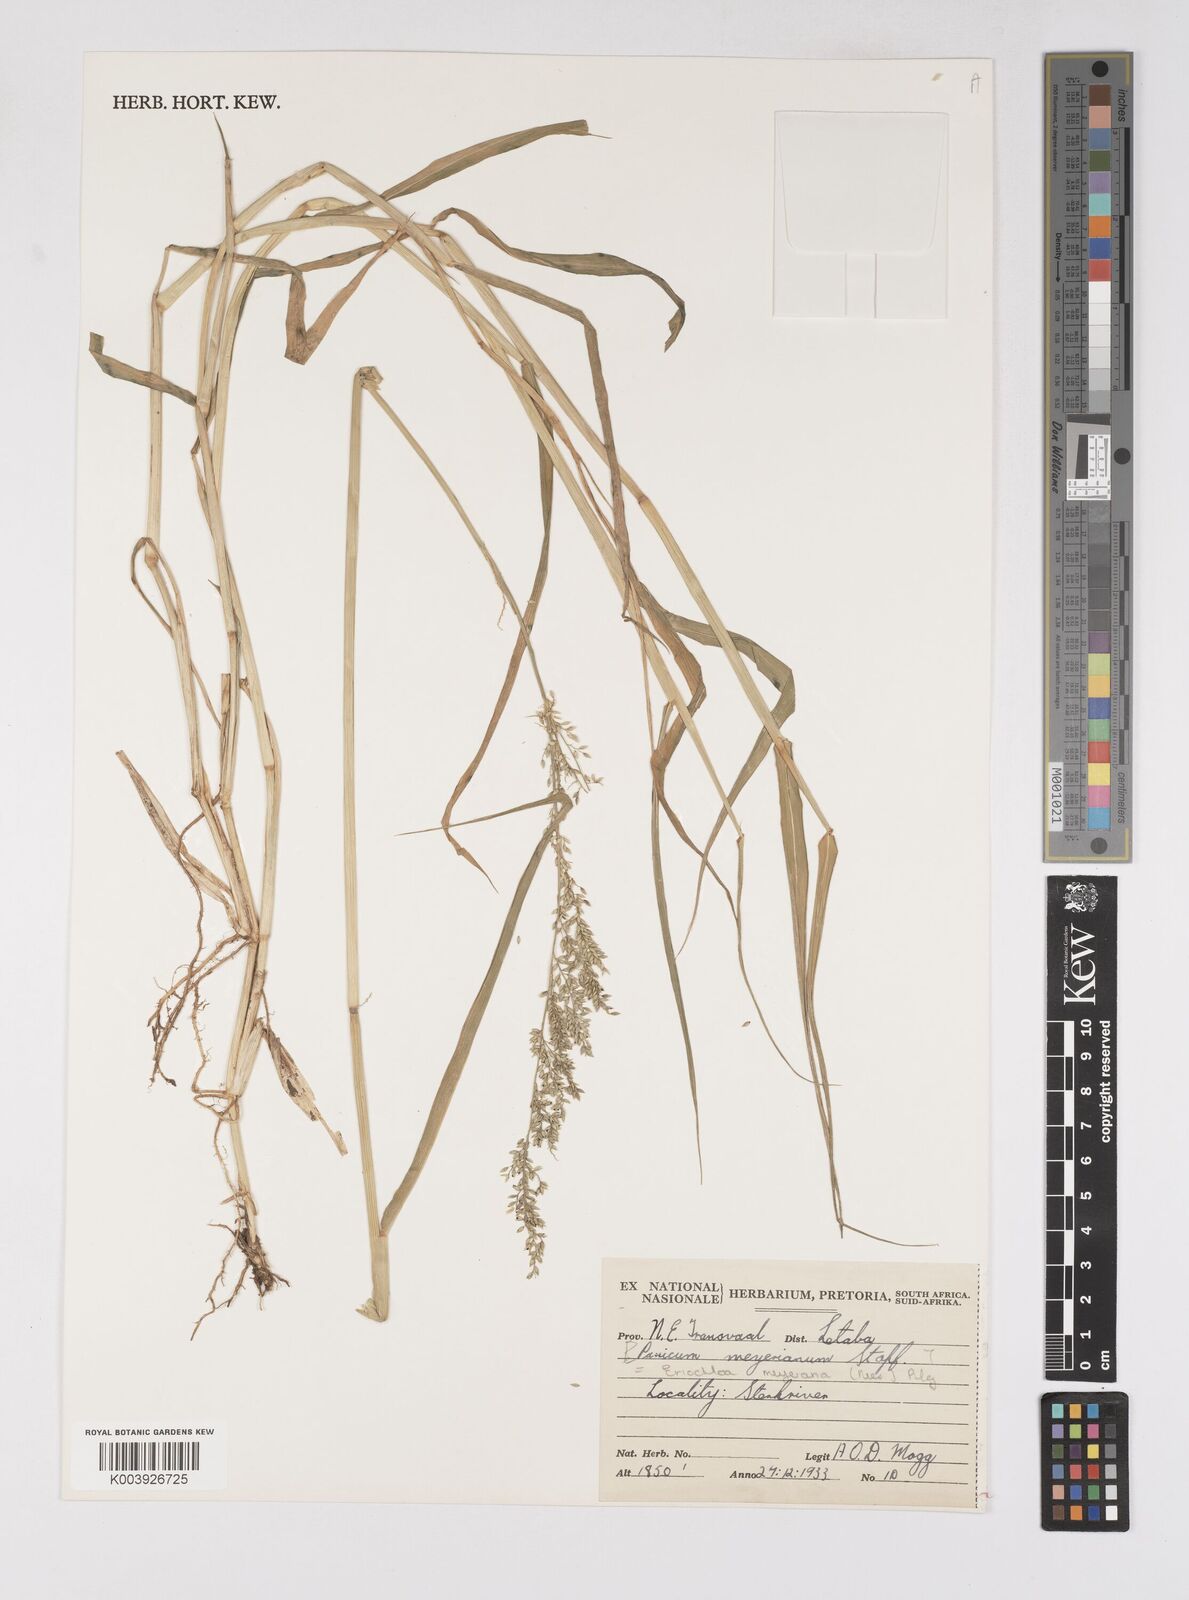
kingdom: Plantae
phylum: Tracheophyta
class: Liliopsida
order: Poales
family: Poaceae
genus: Eriochloa
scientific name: Eriochloa meyeriana
